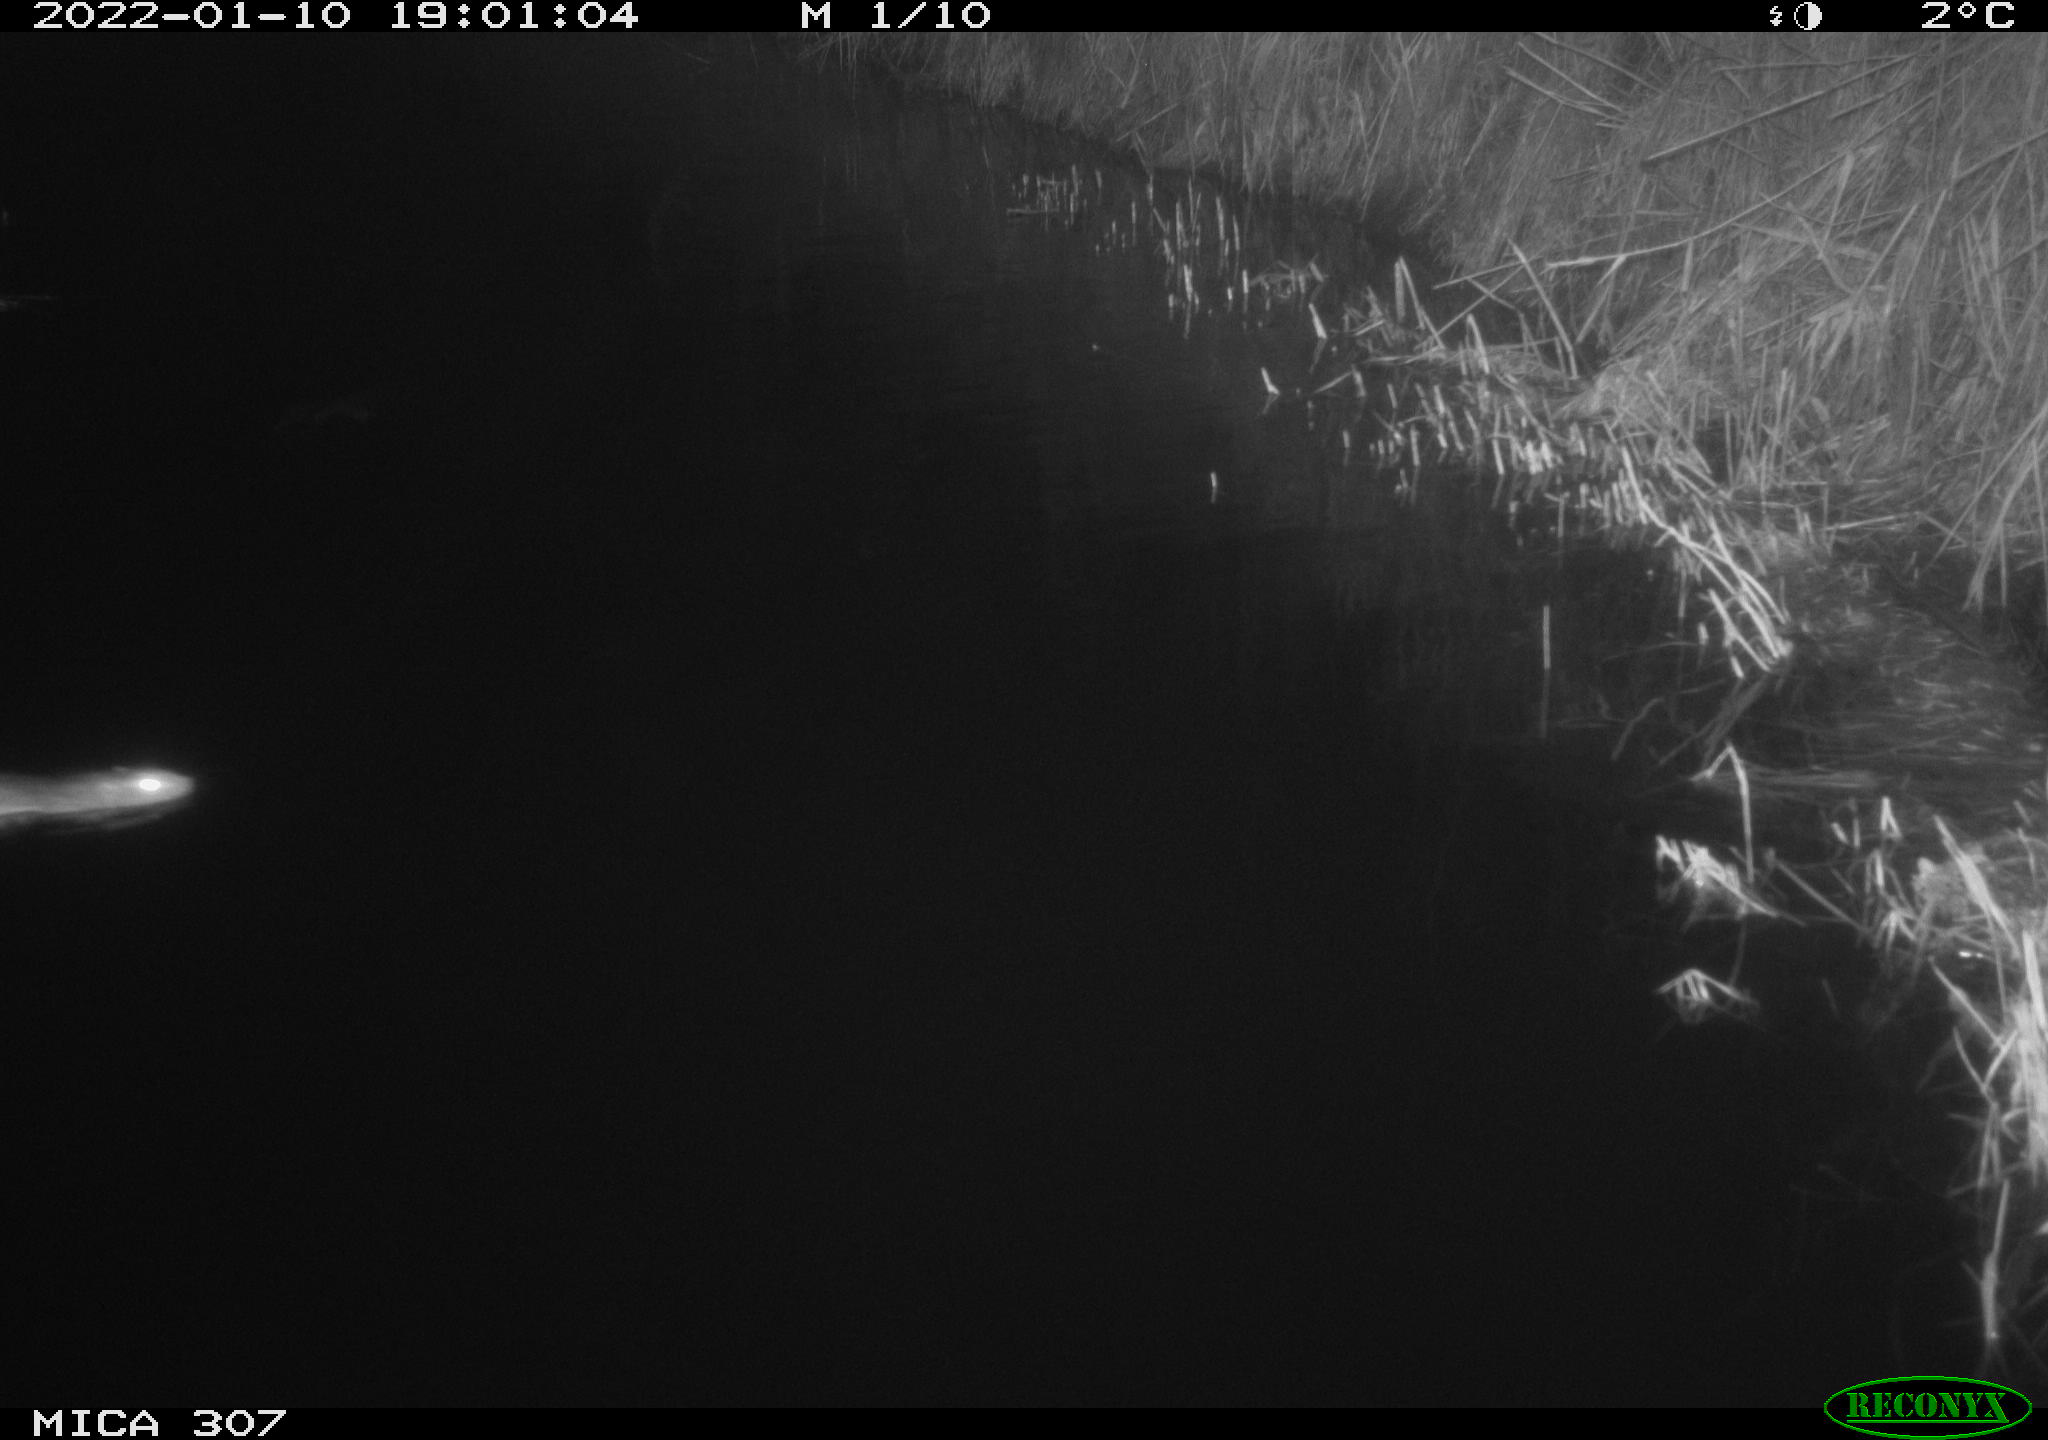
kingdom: Animalia
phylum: Chordata
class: Mammalia
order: Rodentia
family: Muridae
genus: Rattus
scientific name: Rattus norvegicus
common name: Brown rat
